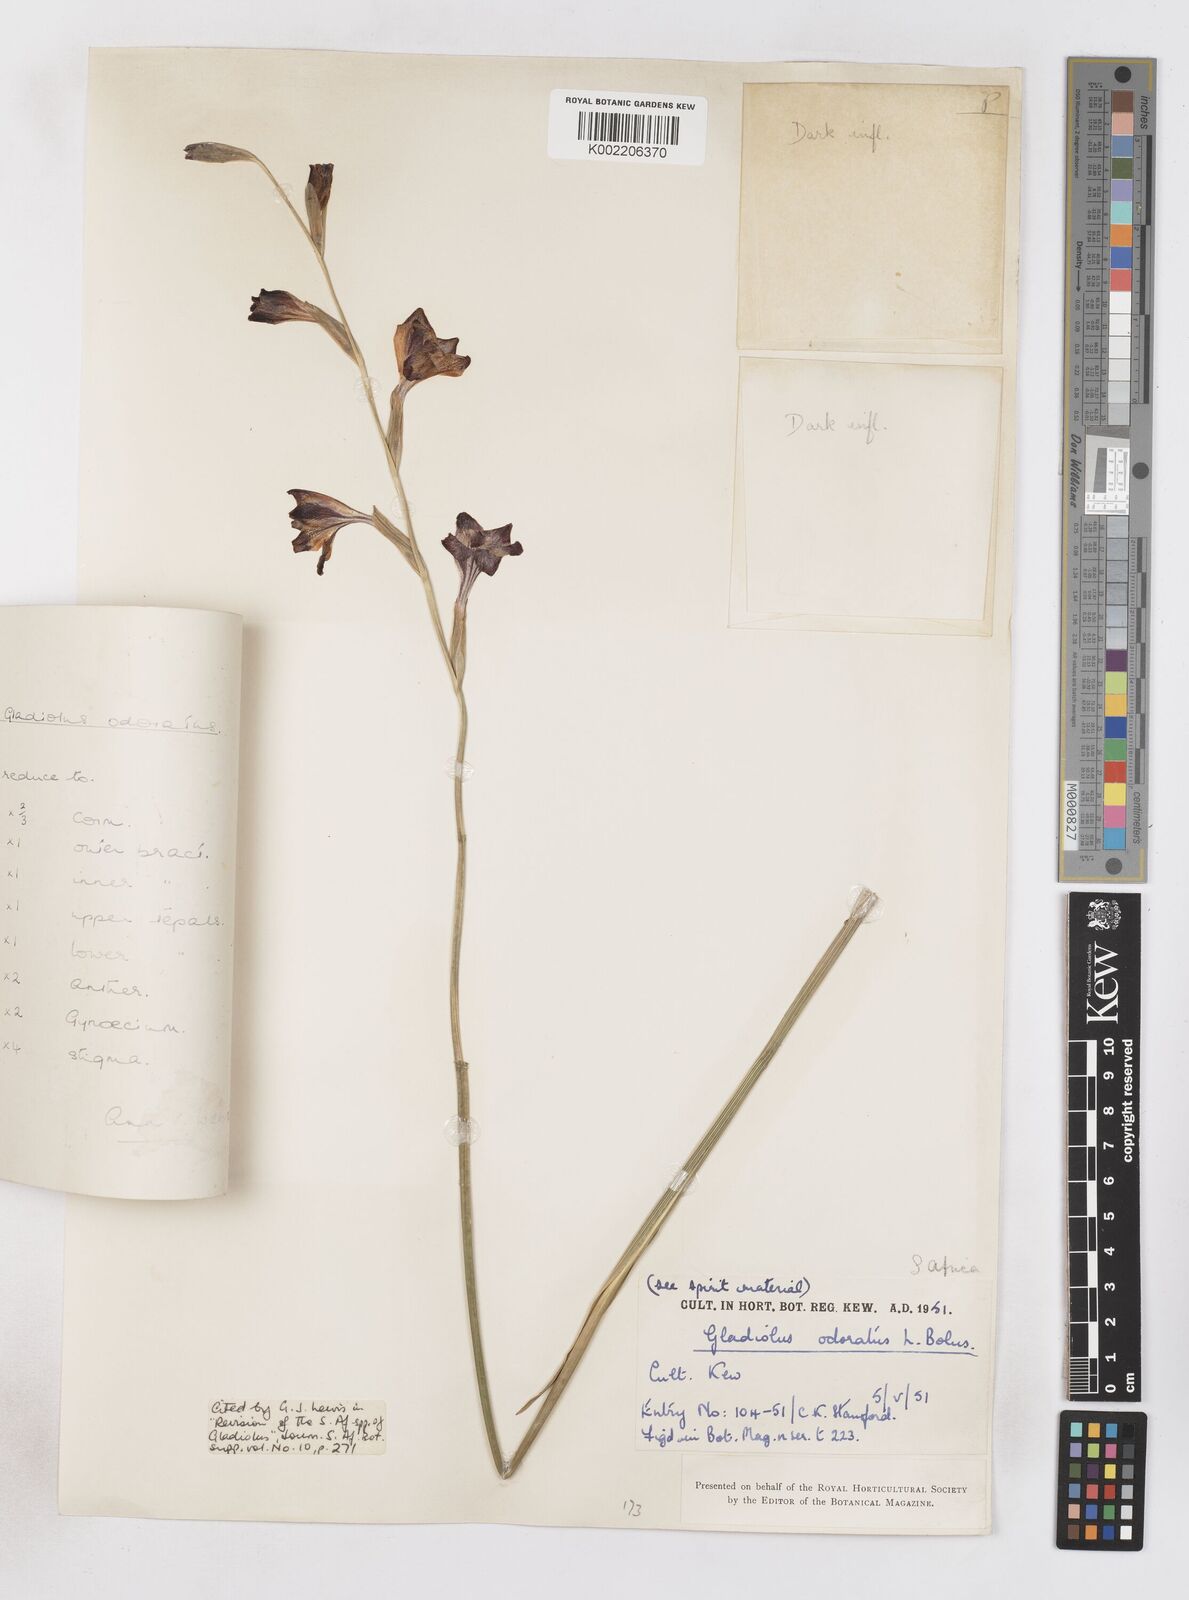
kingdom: Plantae
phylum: Tracheophyta
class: Liliopsida
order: Asparagales
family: Iridaceae
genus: Gladiolus
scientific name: Gladiolus guthriei
